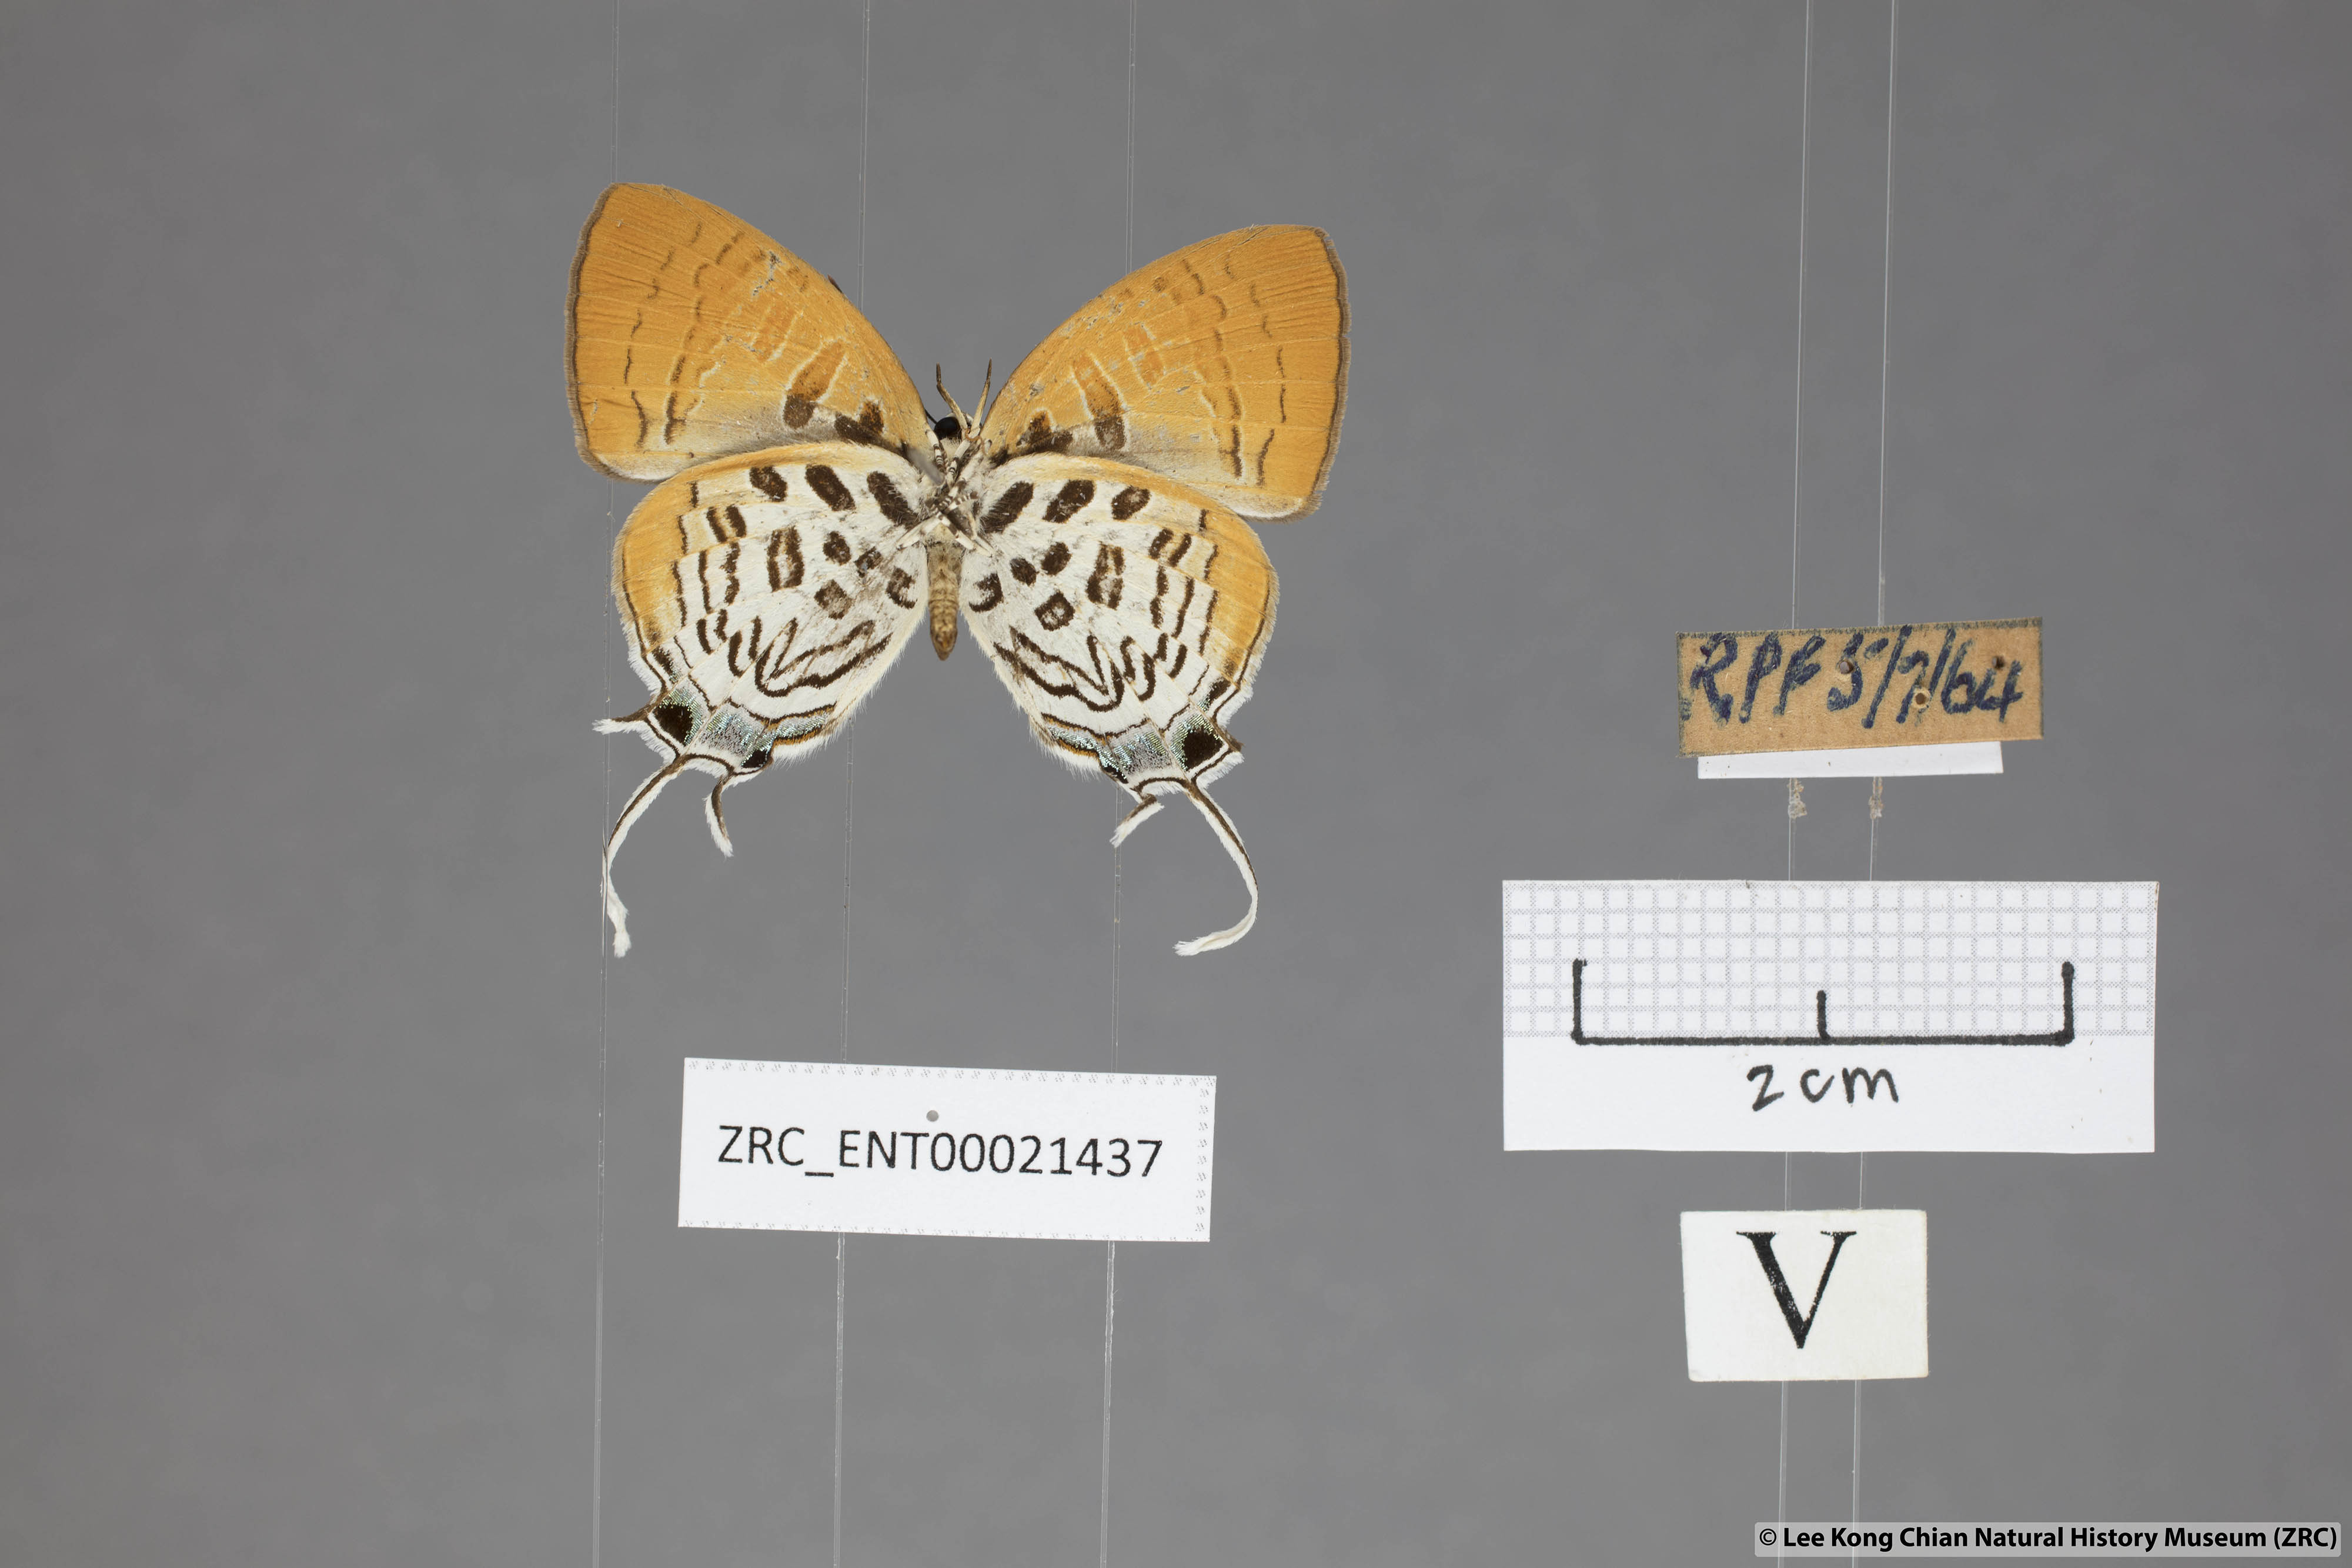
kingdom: Animalia
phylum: Arthropoda
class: Insecta
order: Lepidoptera
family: Lycaenidae
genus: Drupadia
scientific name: Drupadia theda
